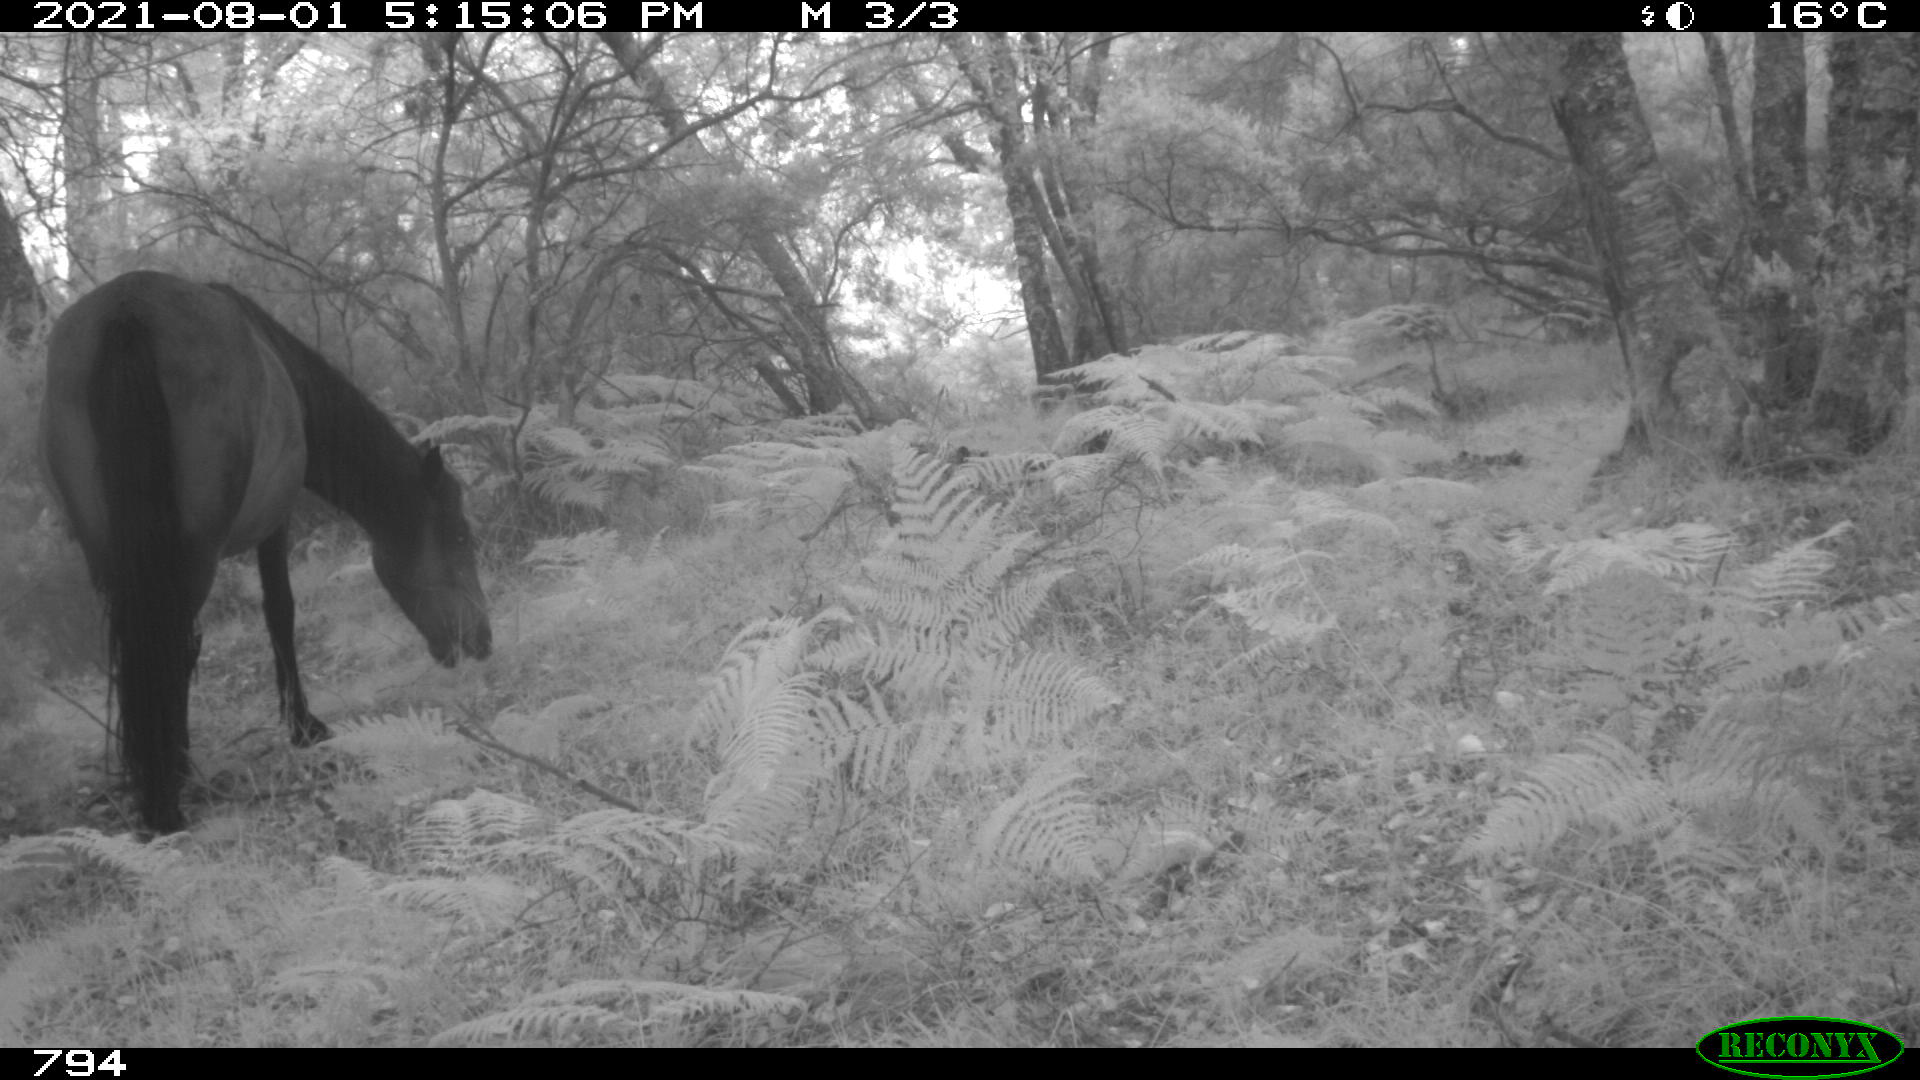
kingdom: Animalia
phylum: Chordata
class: Mammalia
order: Perissodactyla
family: Equidae
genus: Equus
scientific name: Equus caballus
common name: Horse
